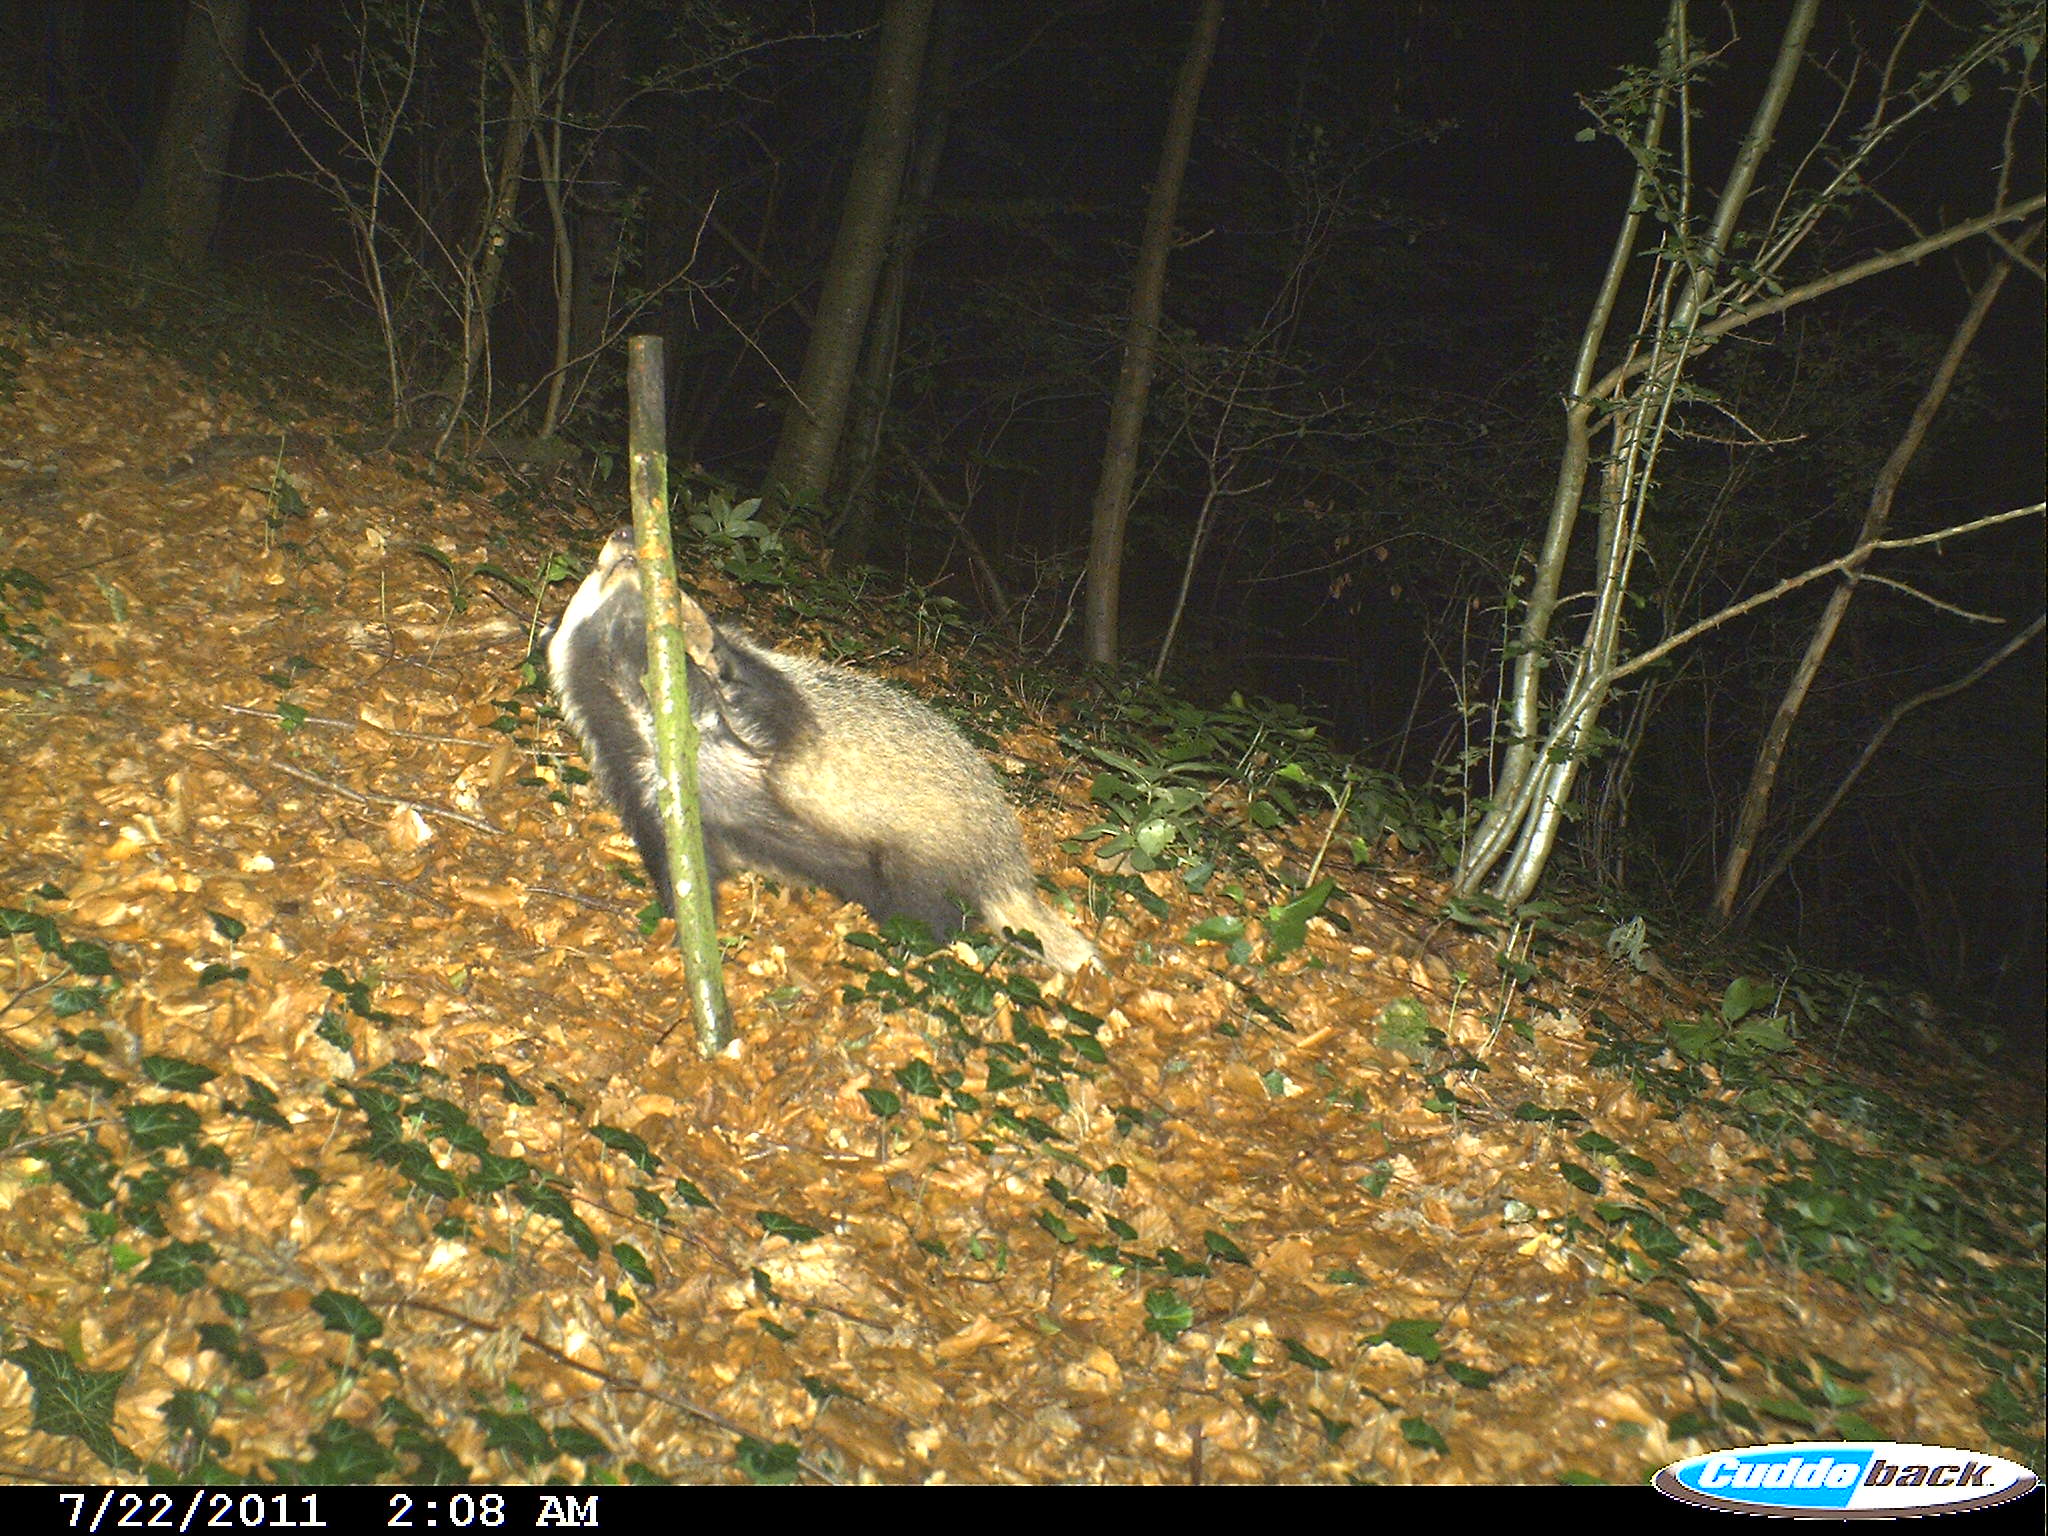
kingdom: Animalia
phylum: Chordata
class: Mammalia
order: Carnivora
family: Mustelidae
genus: Meles
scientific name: Meles meles
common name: Eurasian badger
